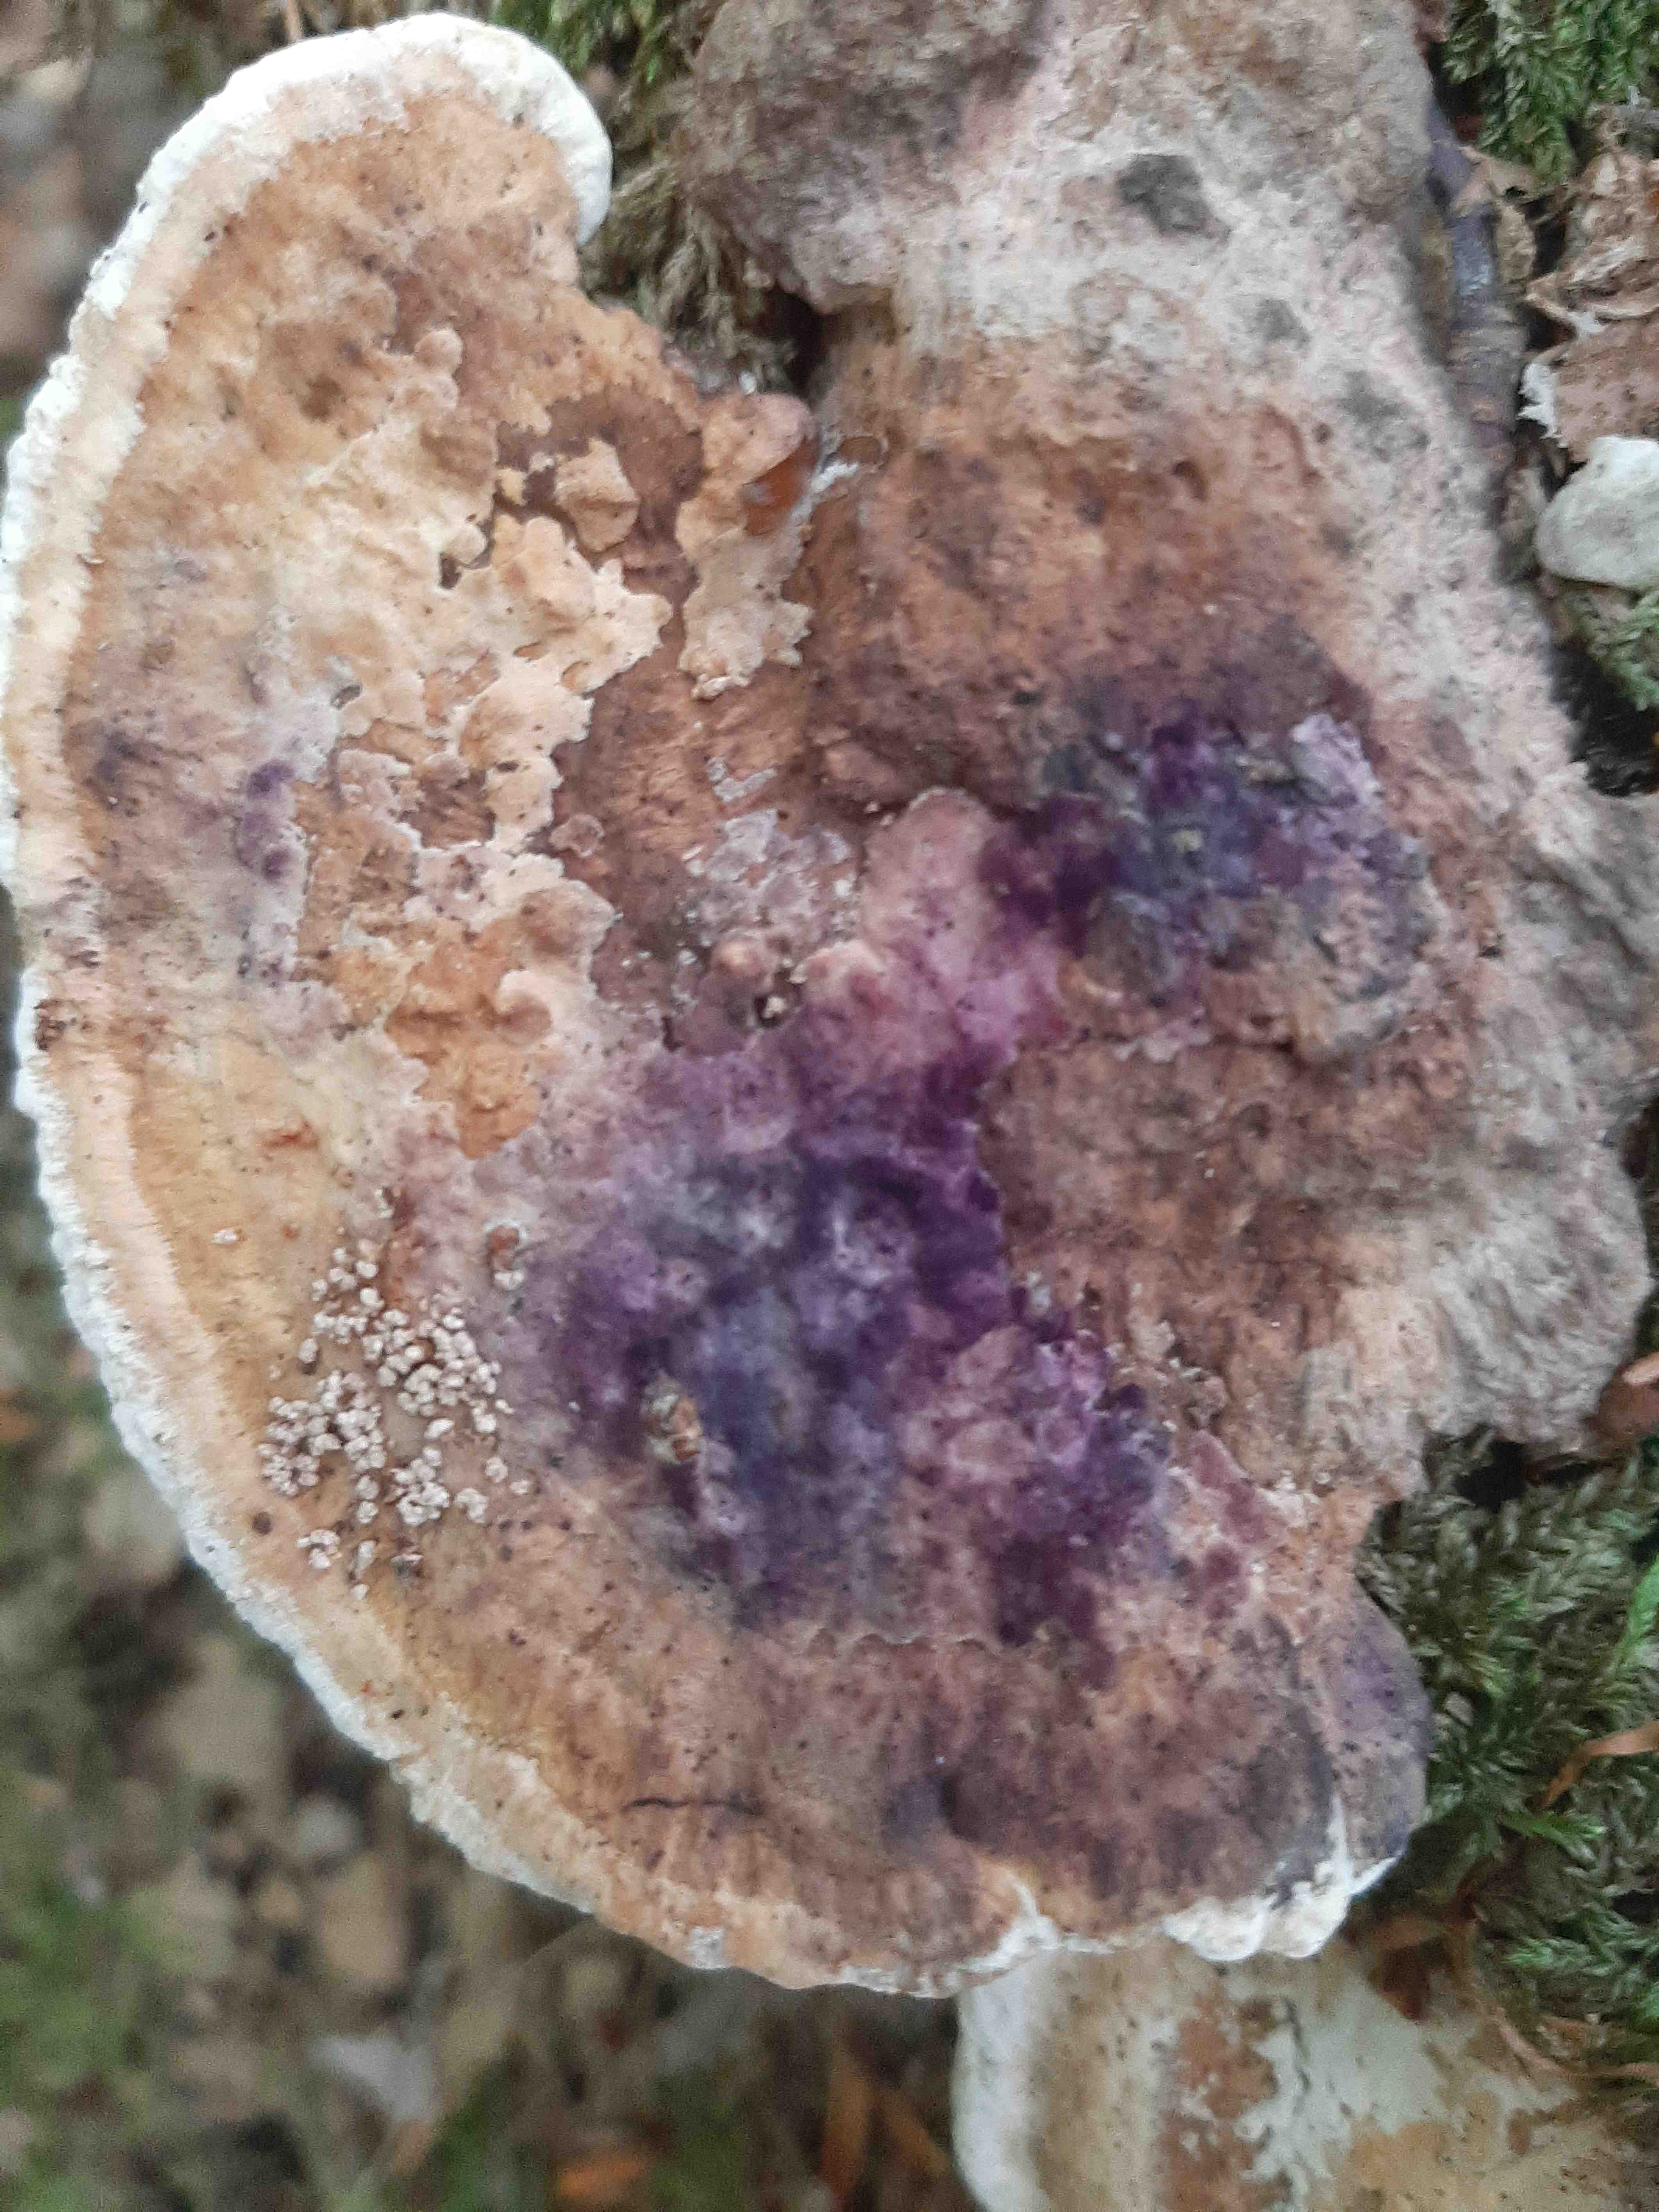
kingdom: Fungi
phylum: Basidiomycota
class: Agaricomycetes
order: Polyporales
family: Fomitopsidaceae
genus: Daedalea
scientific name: Daedalea quercina
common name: ege-labyrintsvamp
